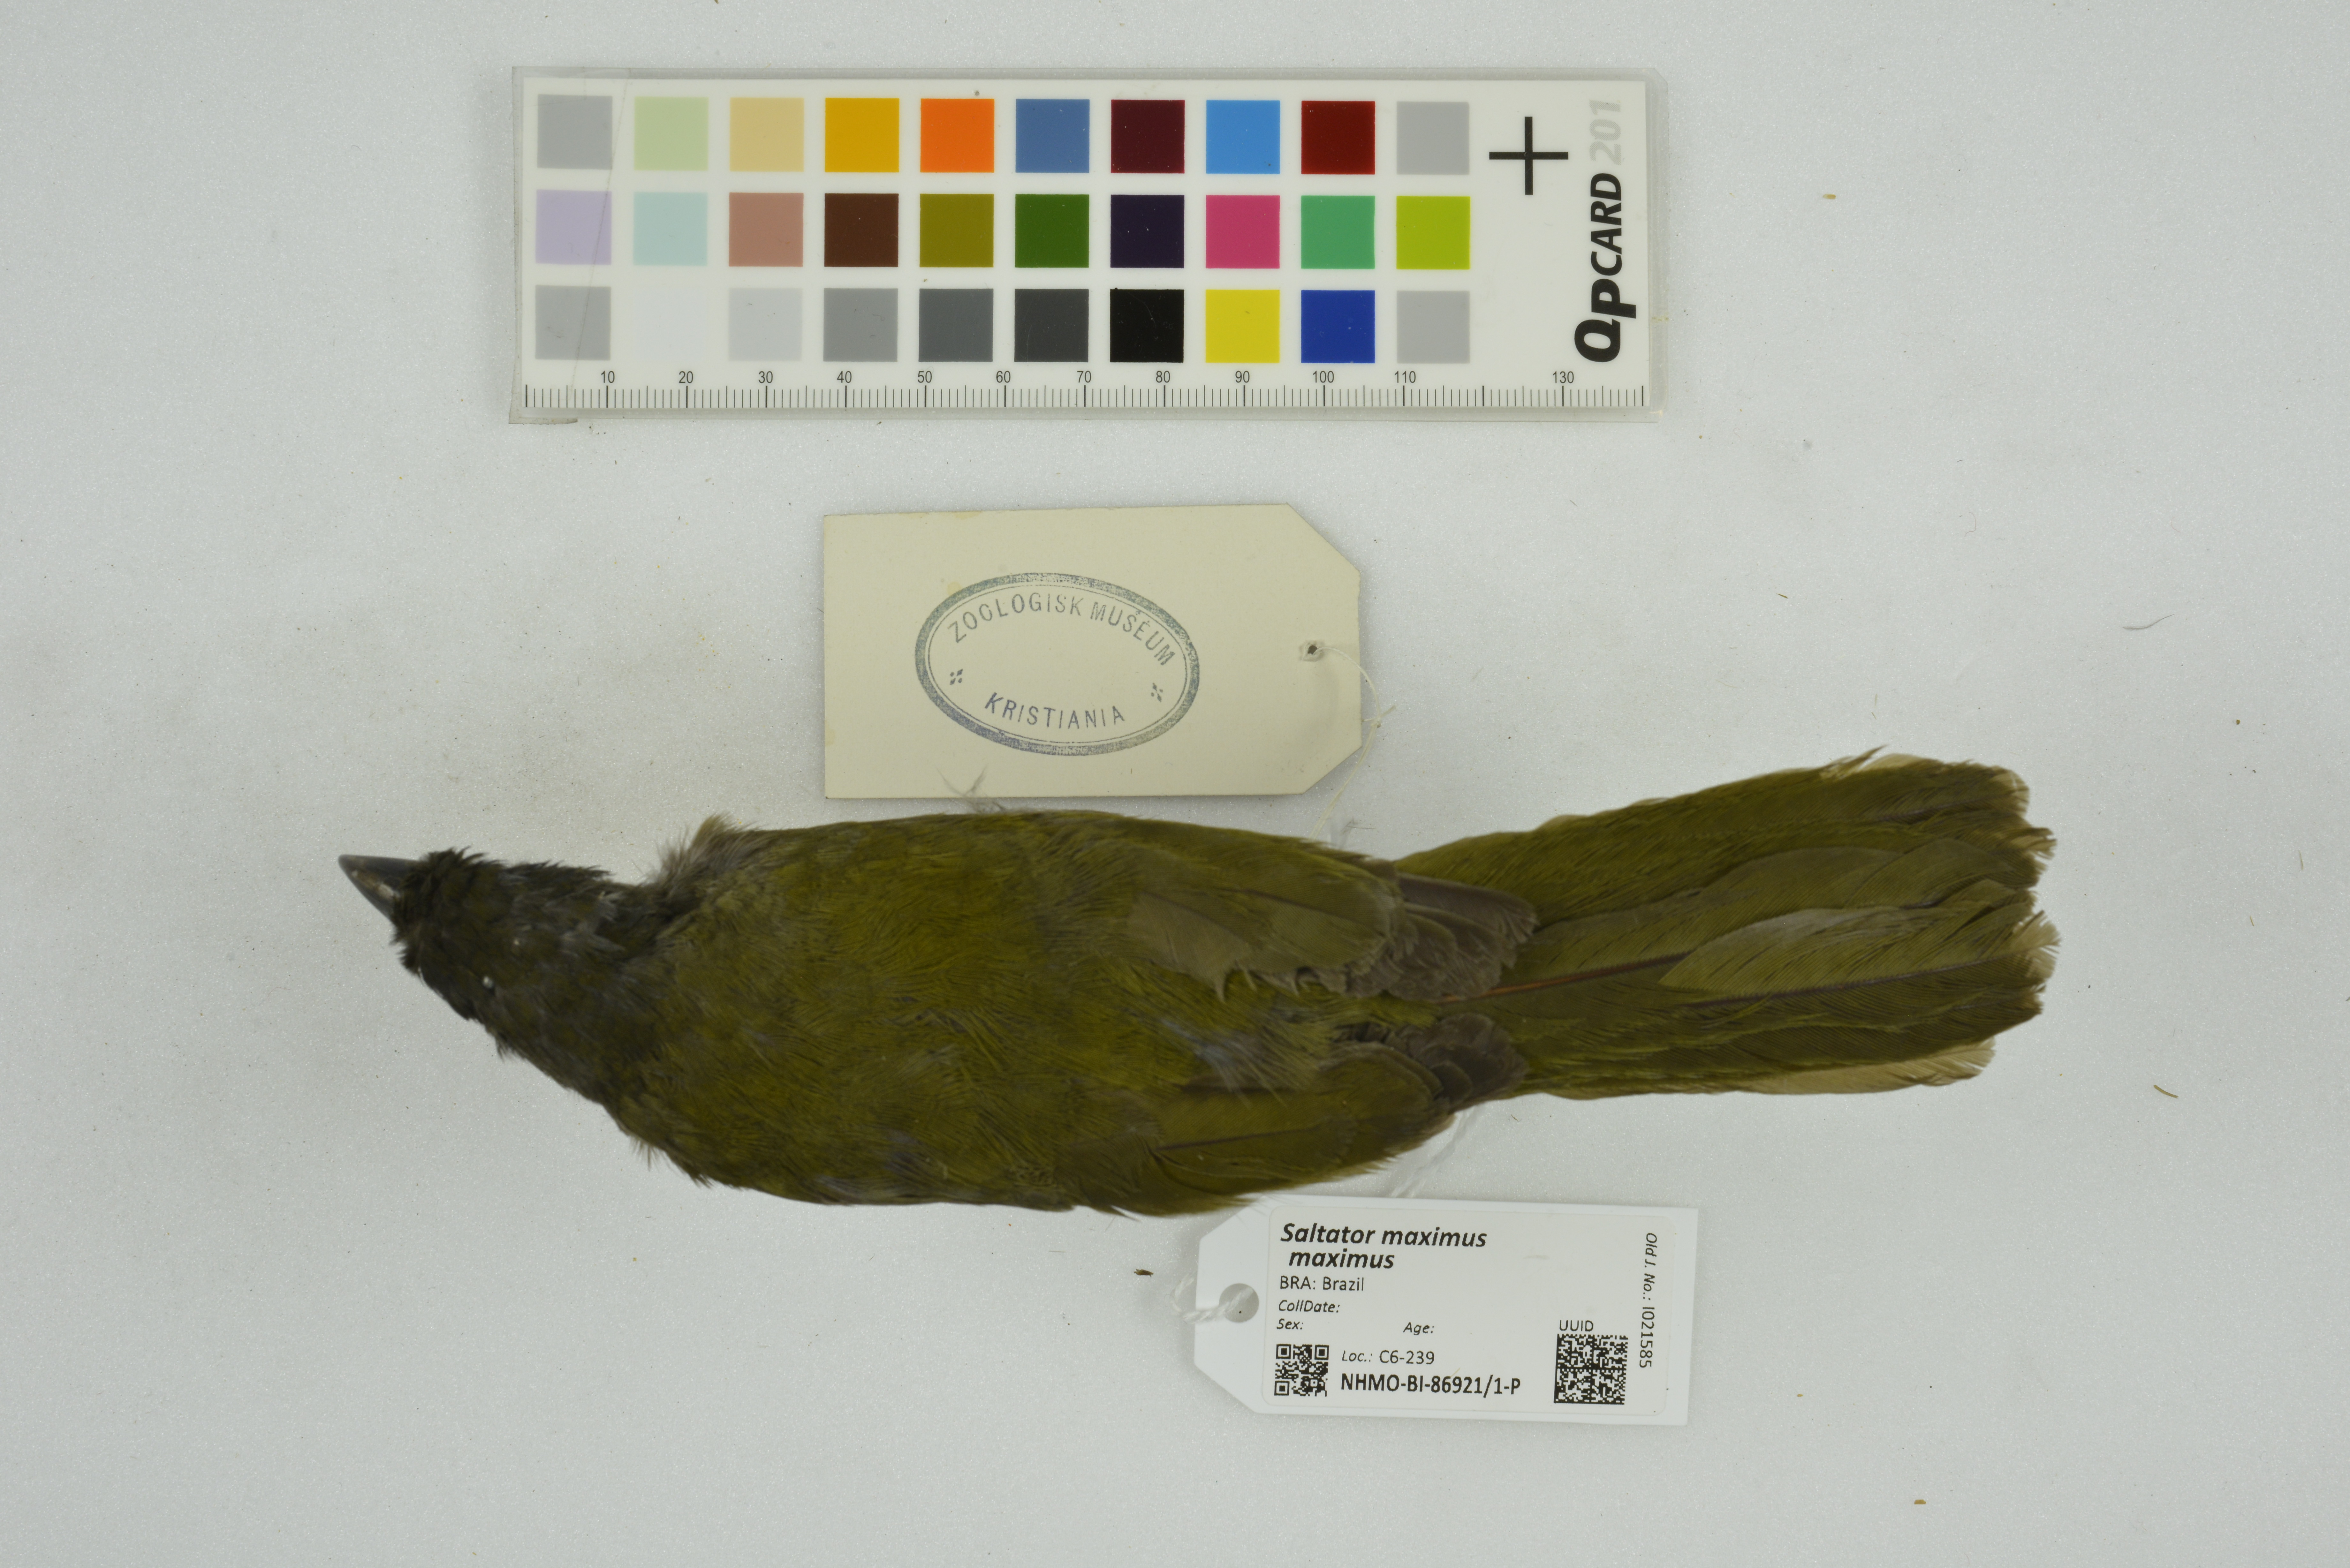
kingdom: Animalia
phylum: Chordata
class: Aves
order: Passeriformes
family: Thraupidae
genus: Saltator
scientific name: Saltator maximus
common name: Buff-throated saltator
